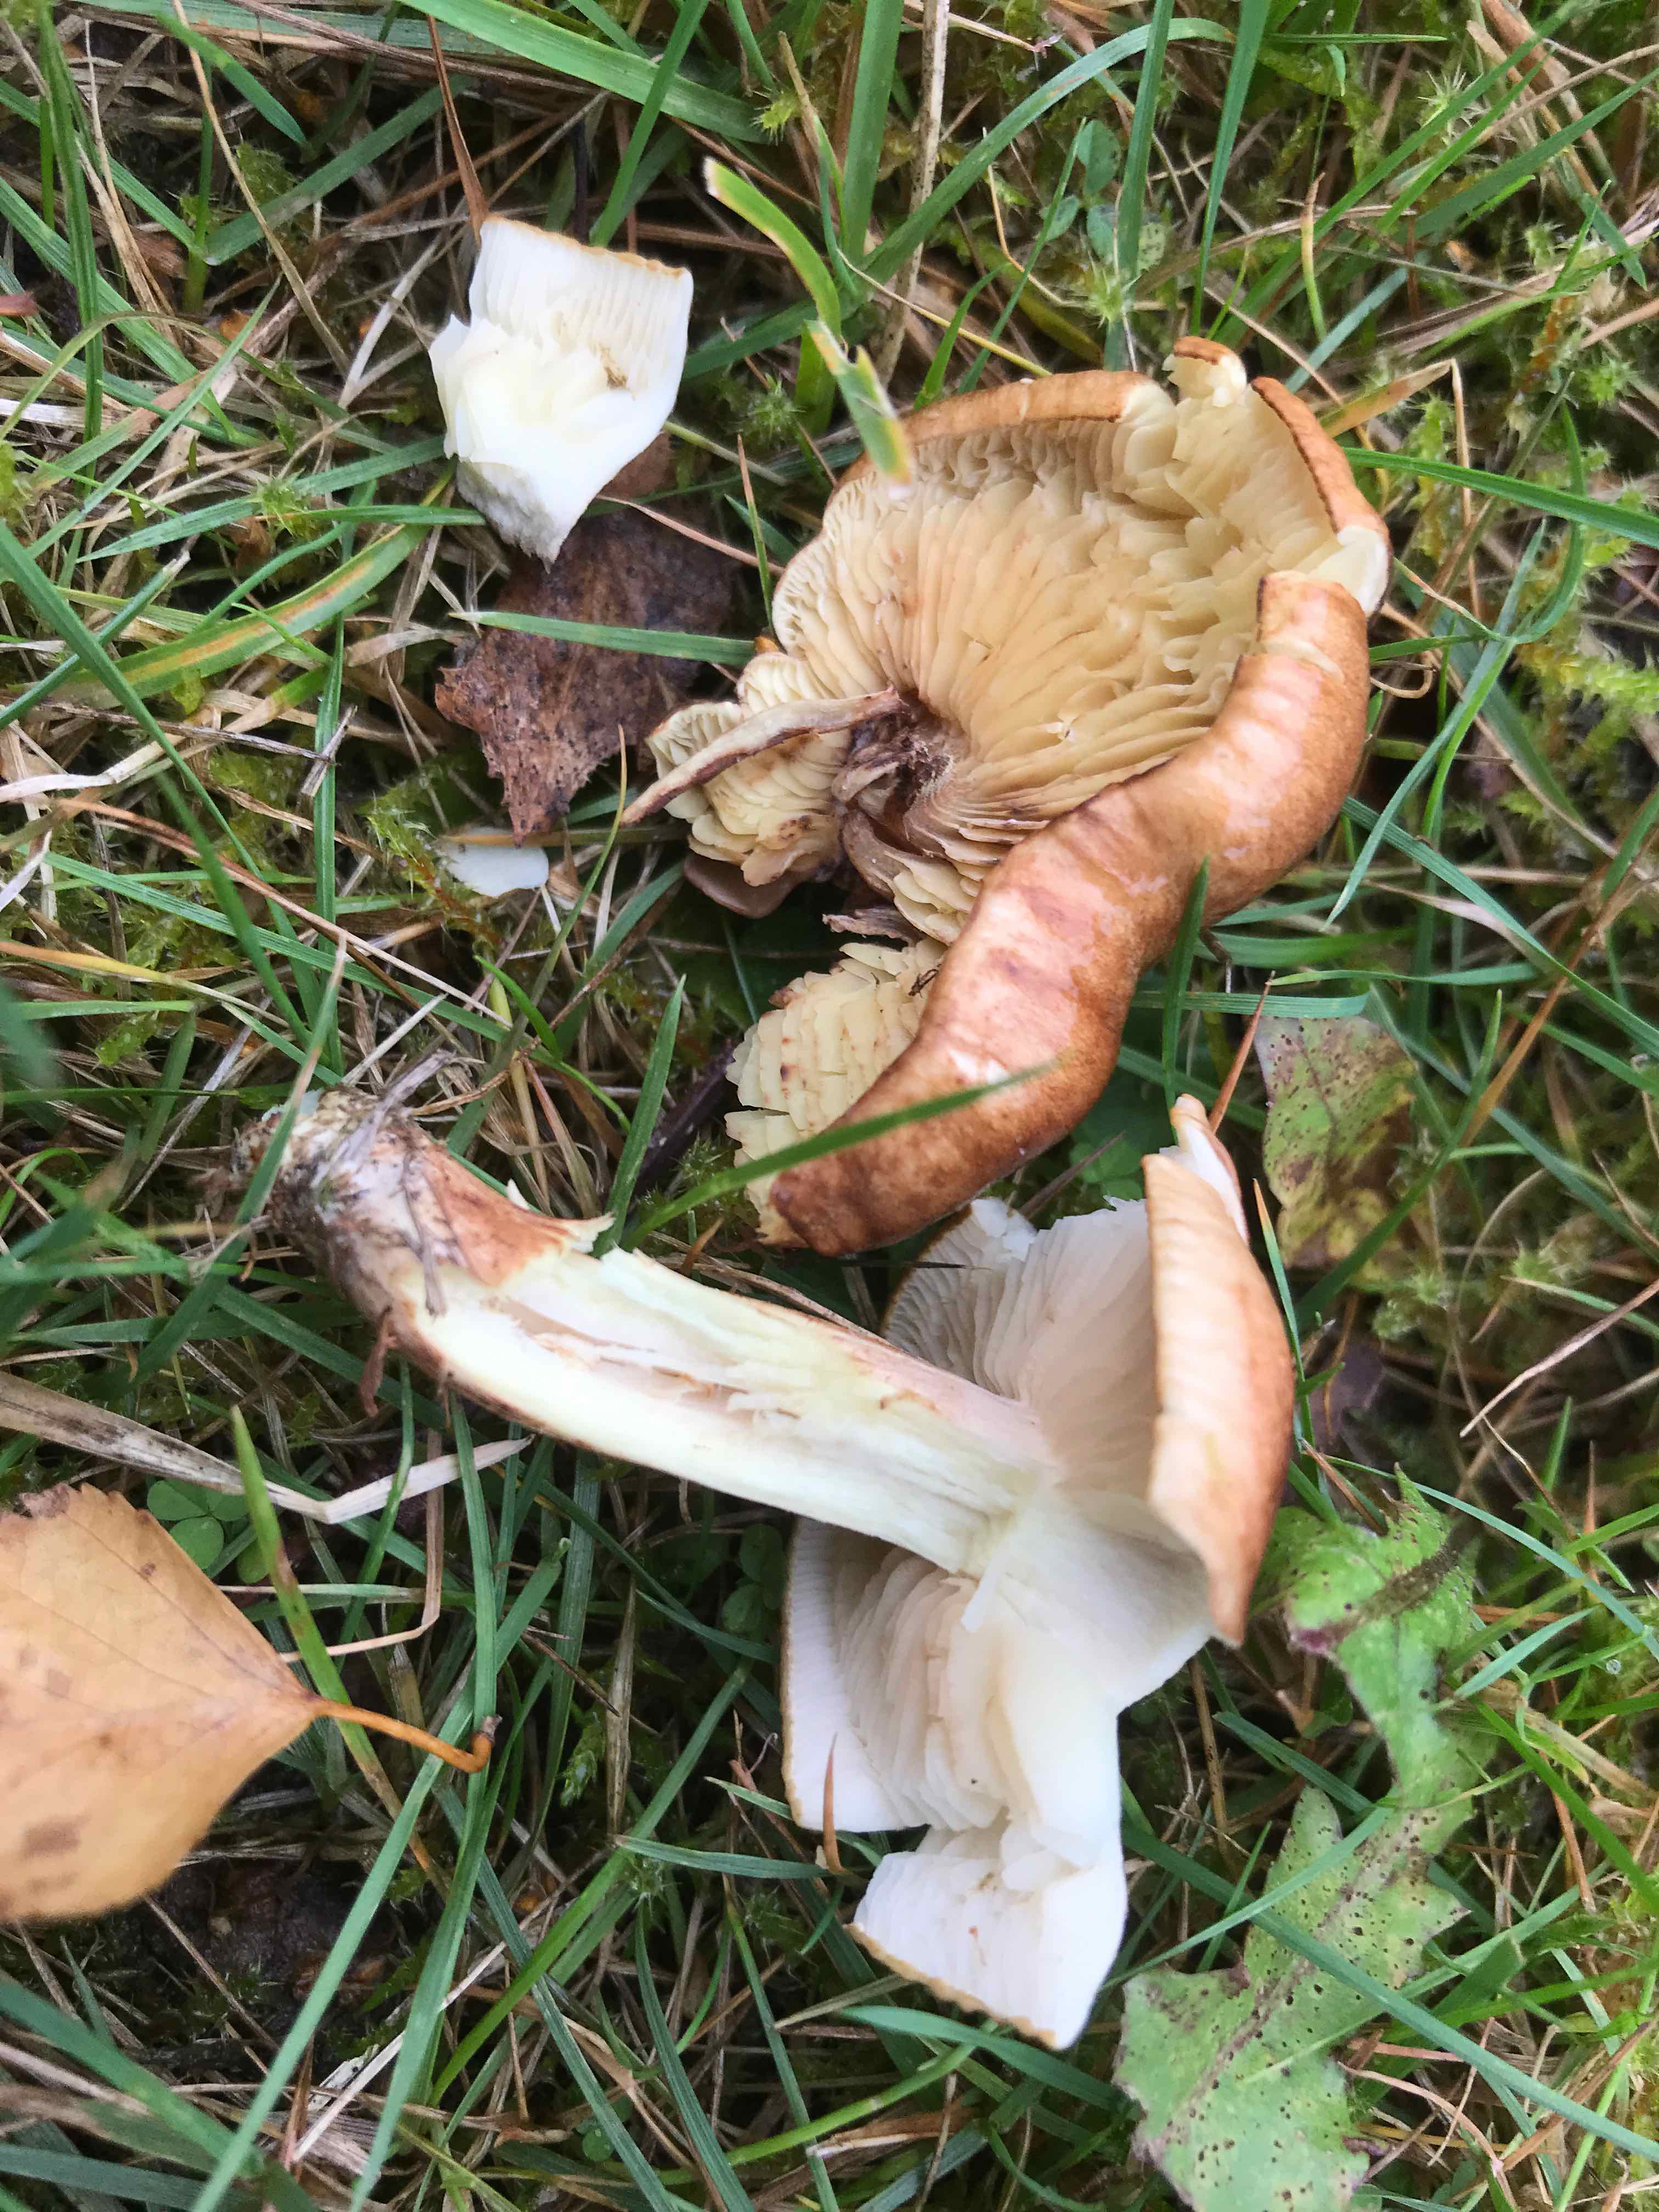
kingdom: Fungi
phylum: Basidiomycota
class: Agaricomycetes
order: Agaricales
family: Tricholomataceae
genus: Tricholoma
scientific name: Tricholoma fulvum
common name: birke-ridderhat
